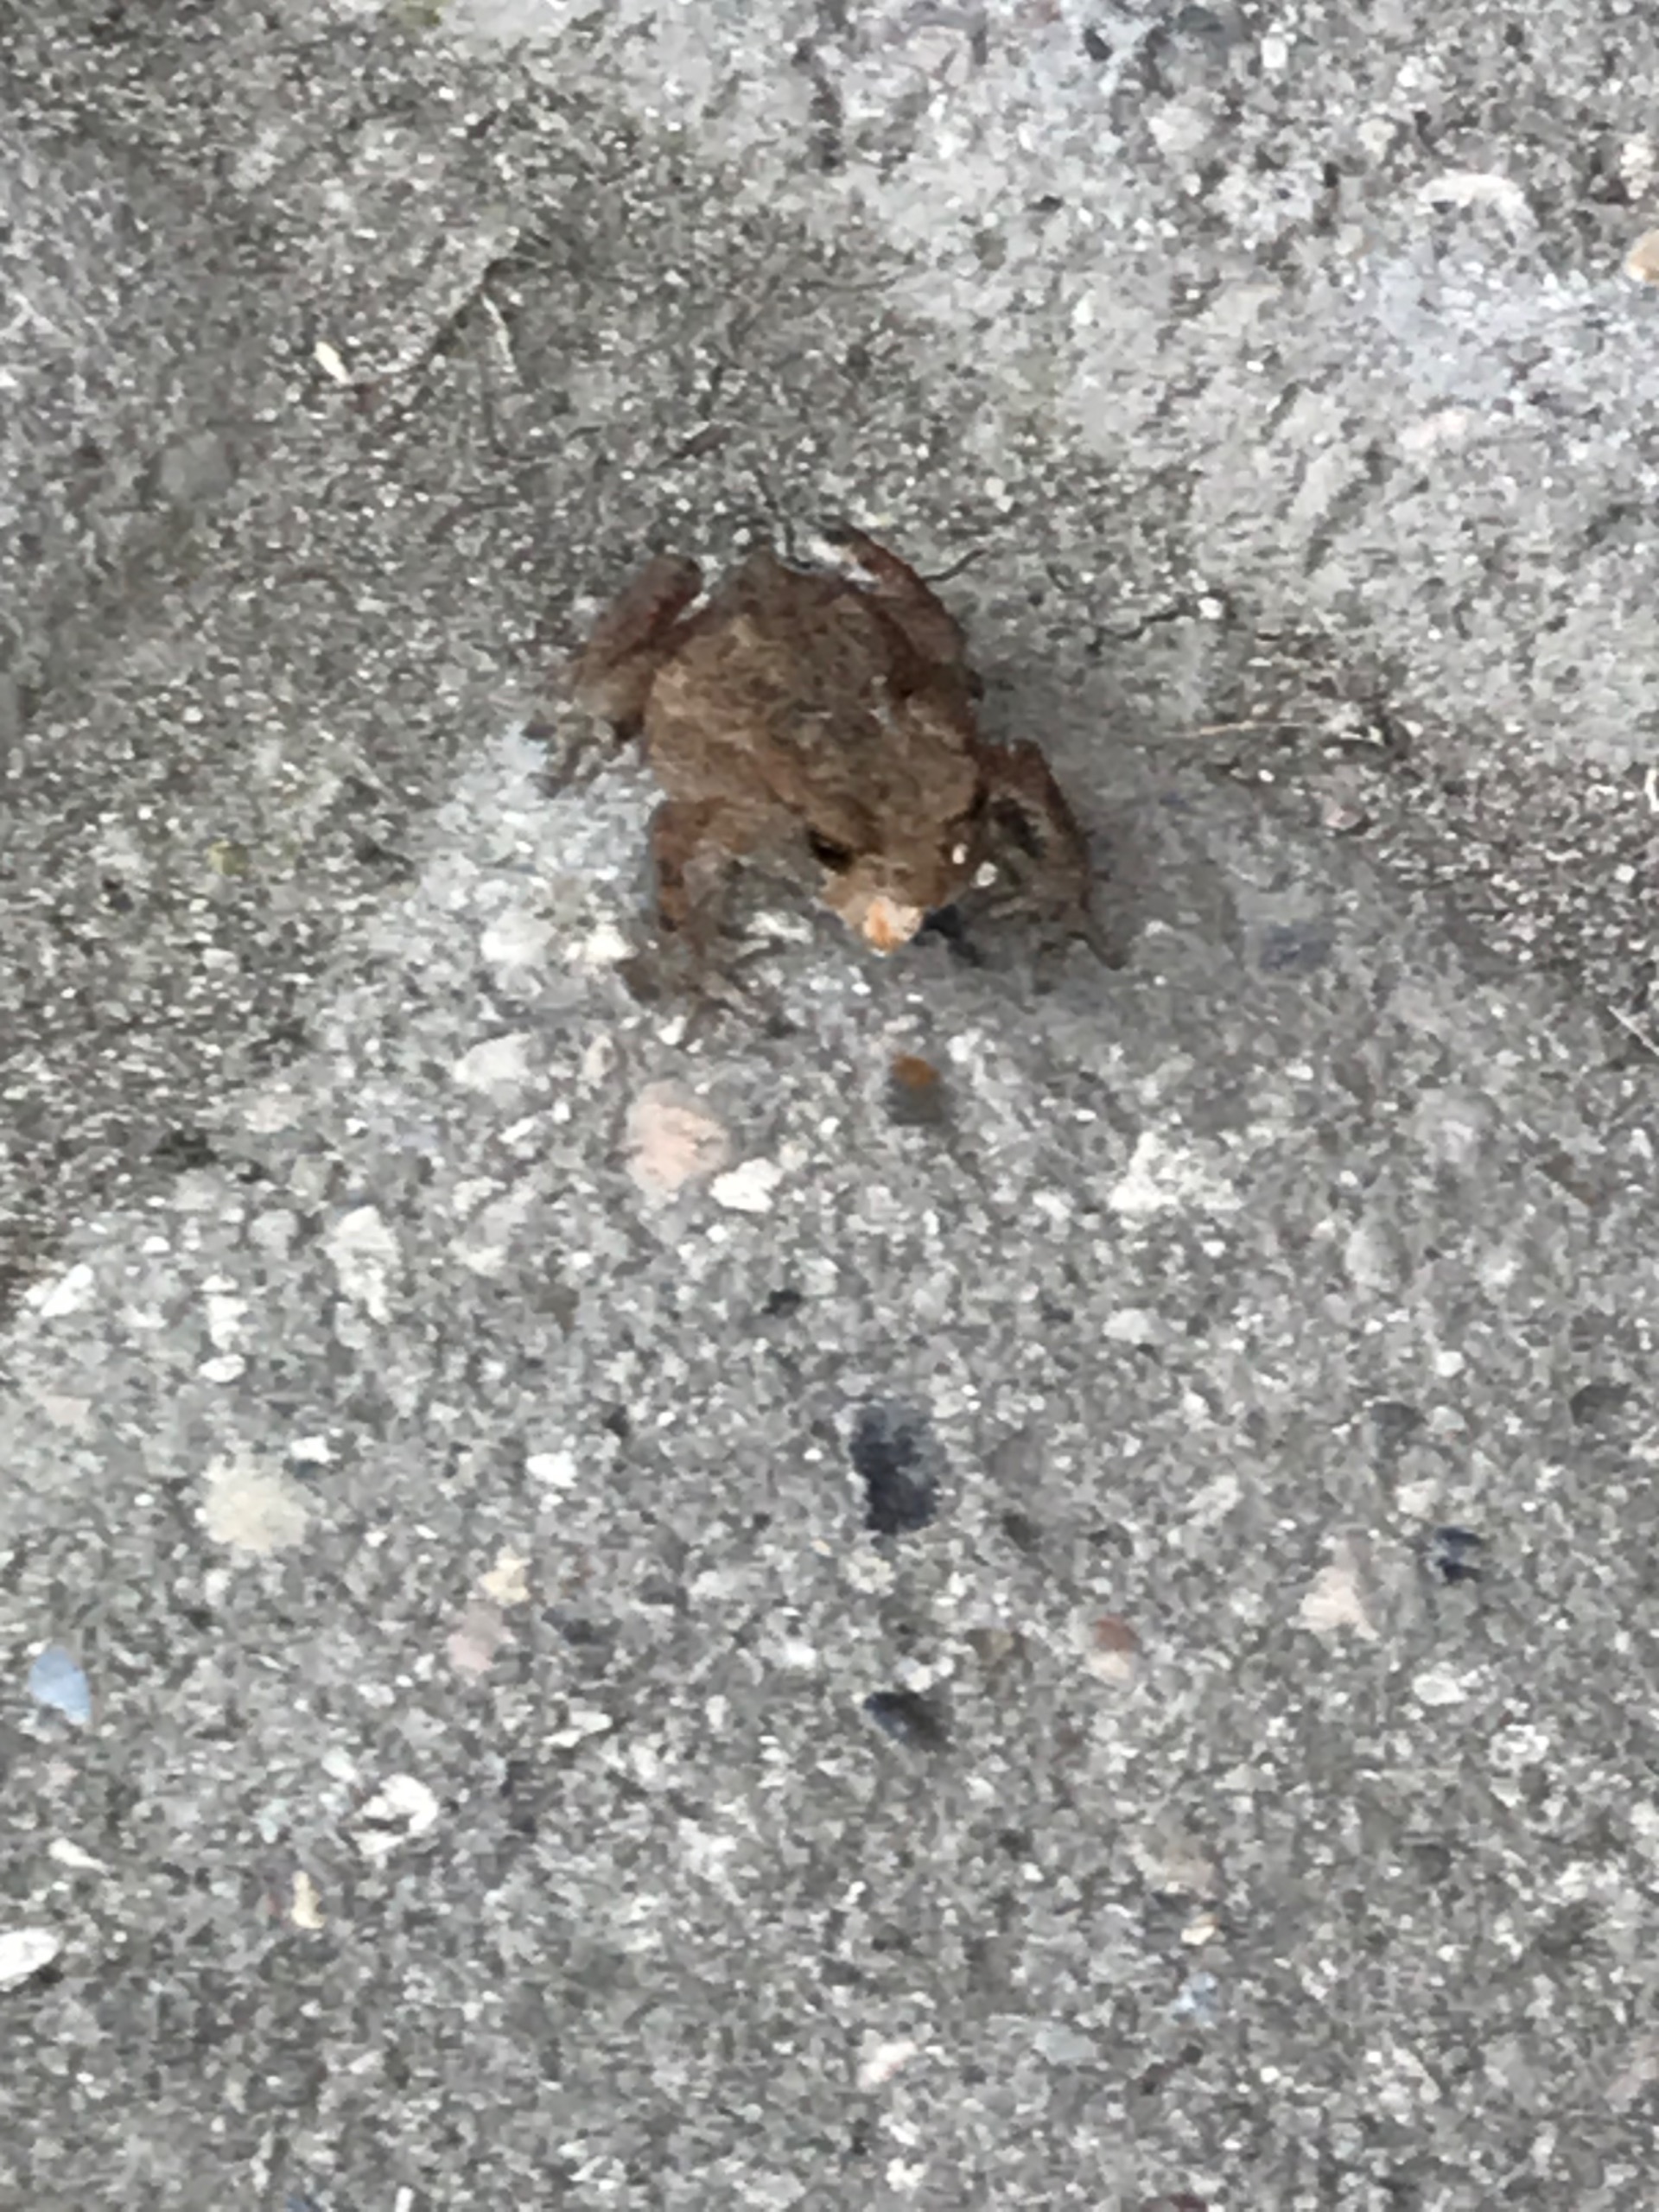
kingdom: Animalia
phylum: Chordata
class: Amphibia
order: Anura
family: Bufonidae
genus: Bufo
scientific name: Bufo bufo
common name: Skrubtudse
